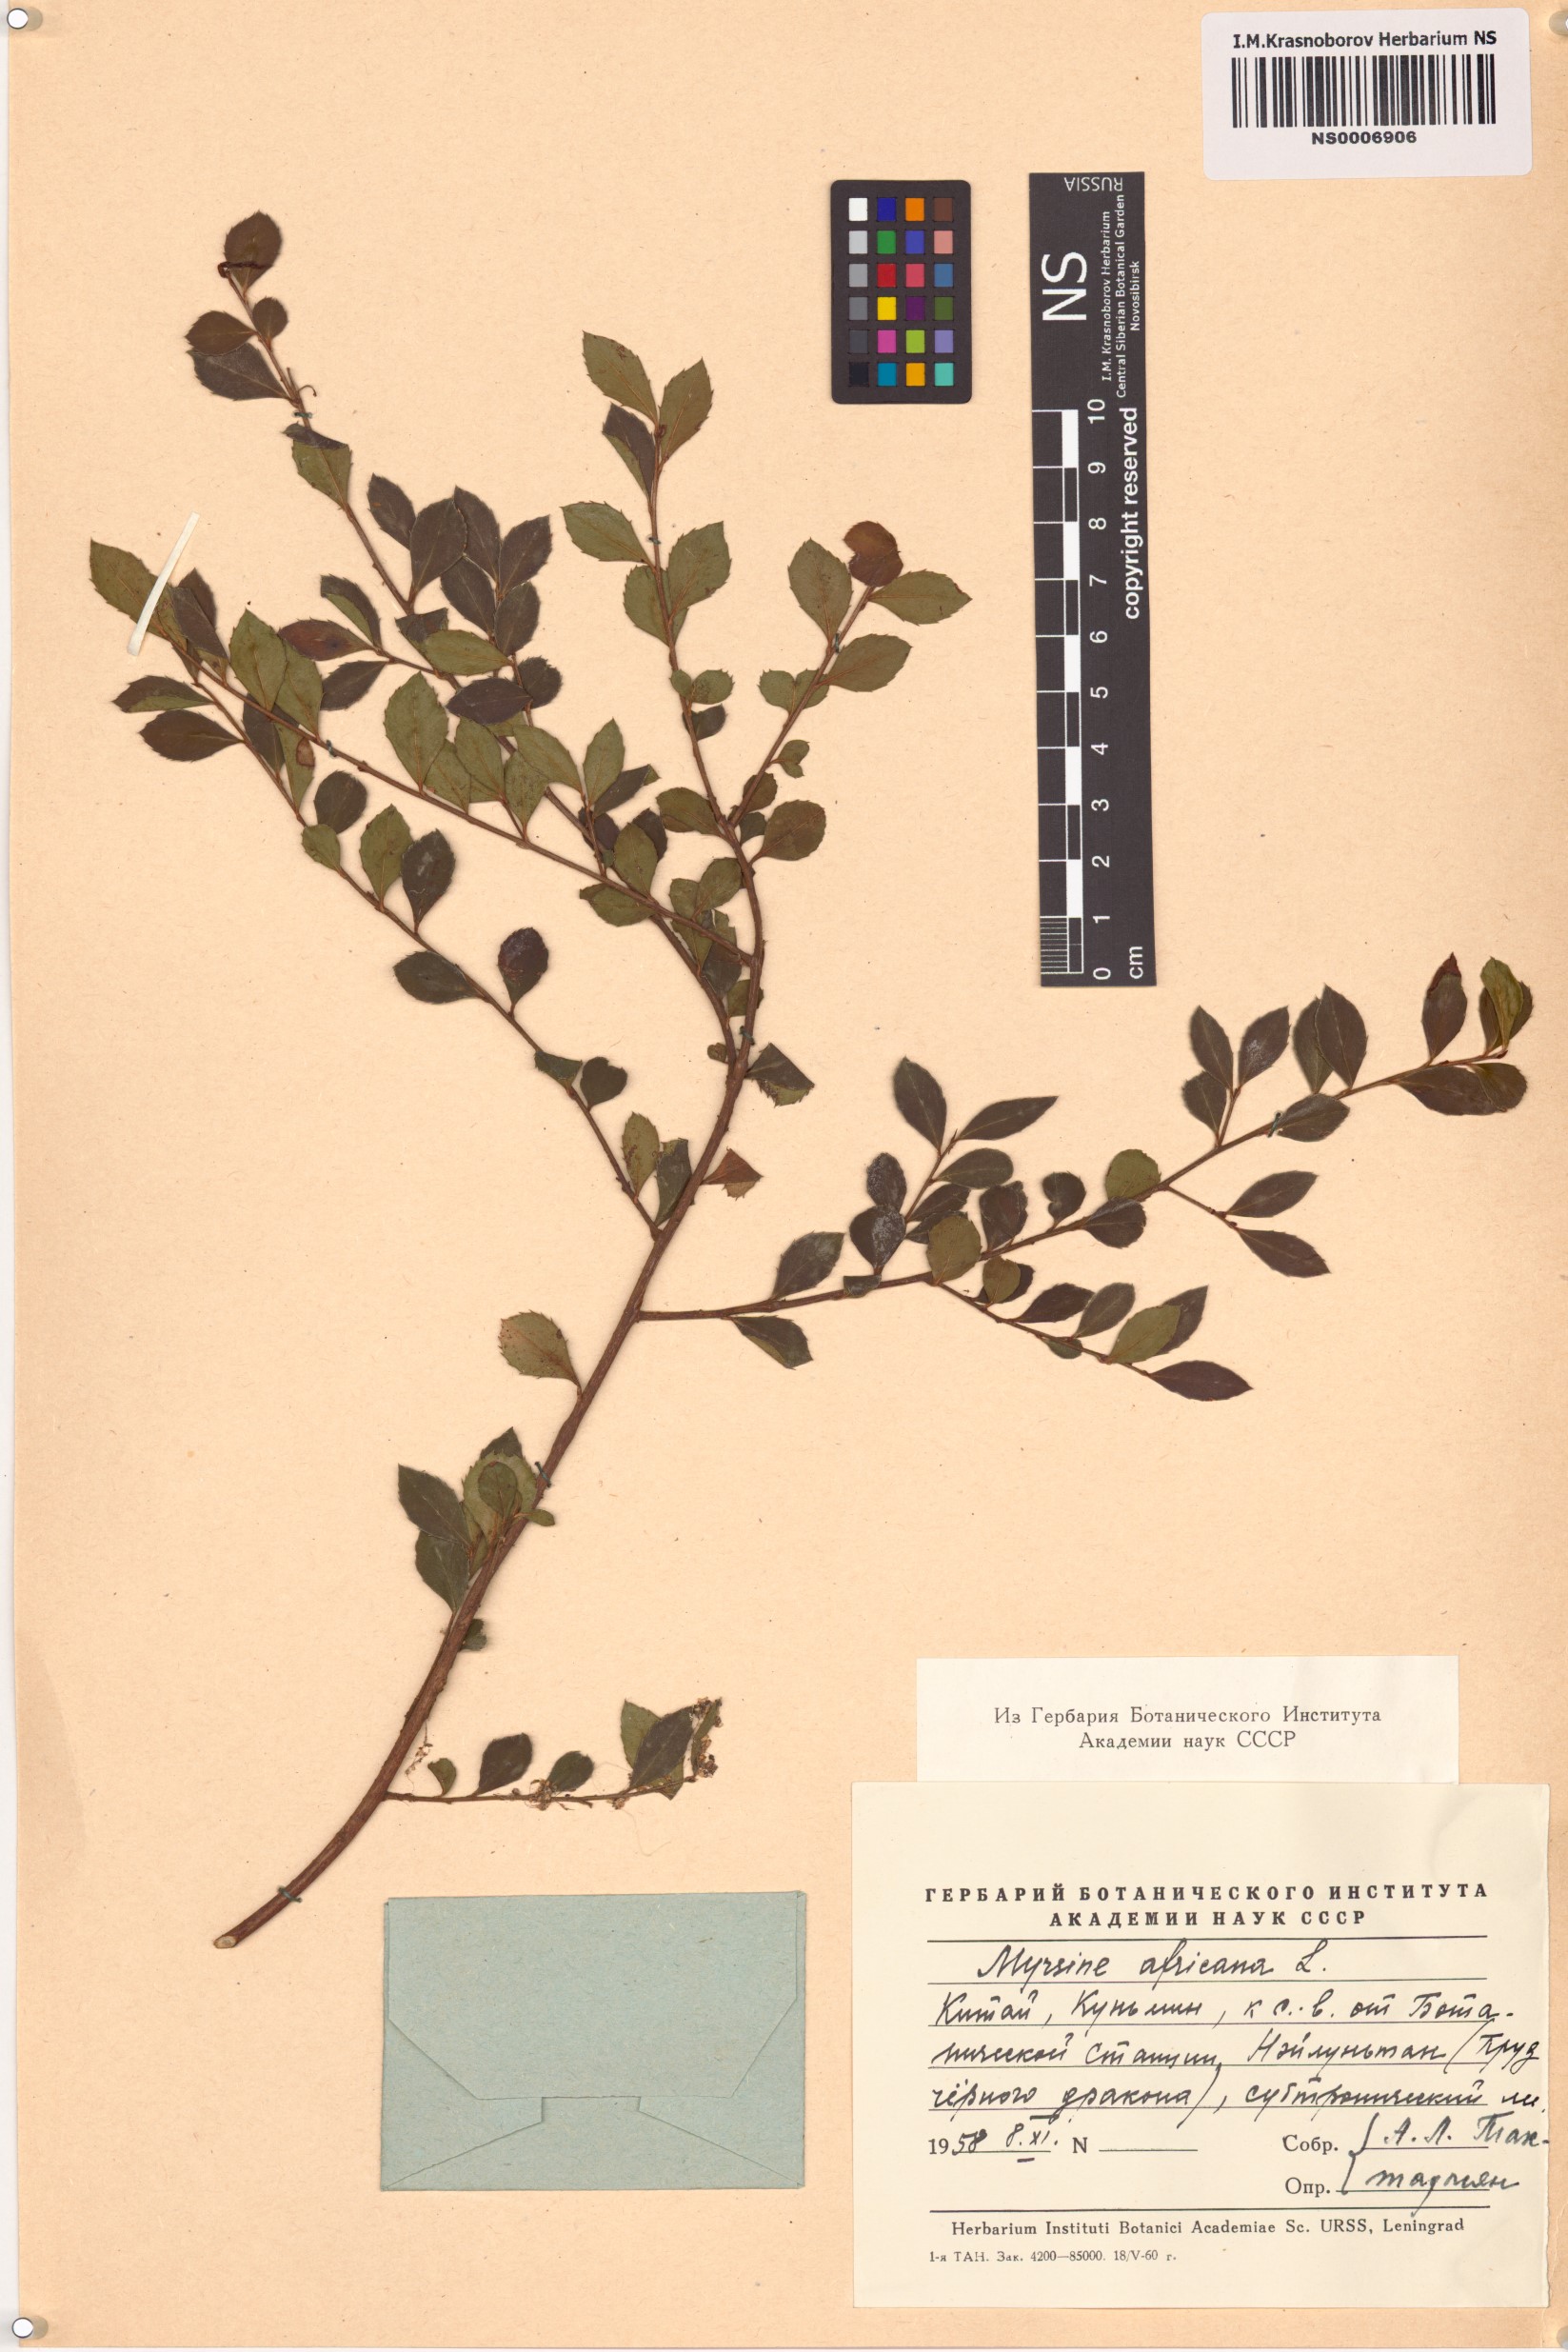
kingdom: Plantae
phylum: Tracheophyta
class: Magnoliopsida
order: Ericales
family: Primulaceae
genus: Myrsine
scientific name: Myrsine africana
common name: African-boxwood
